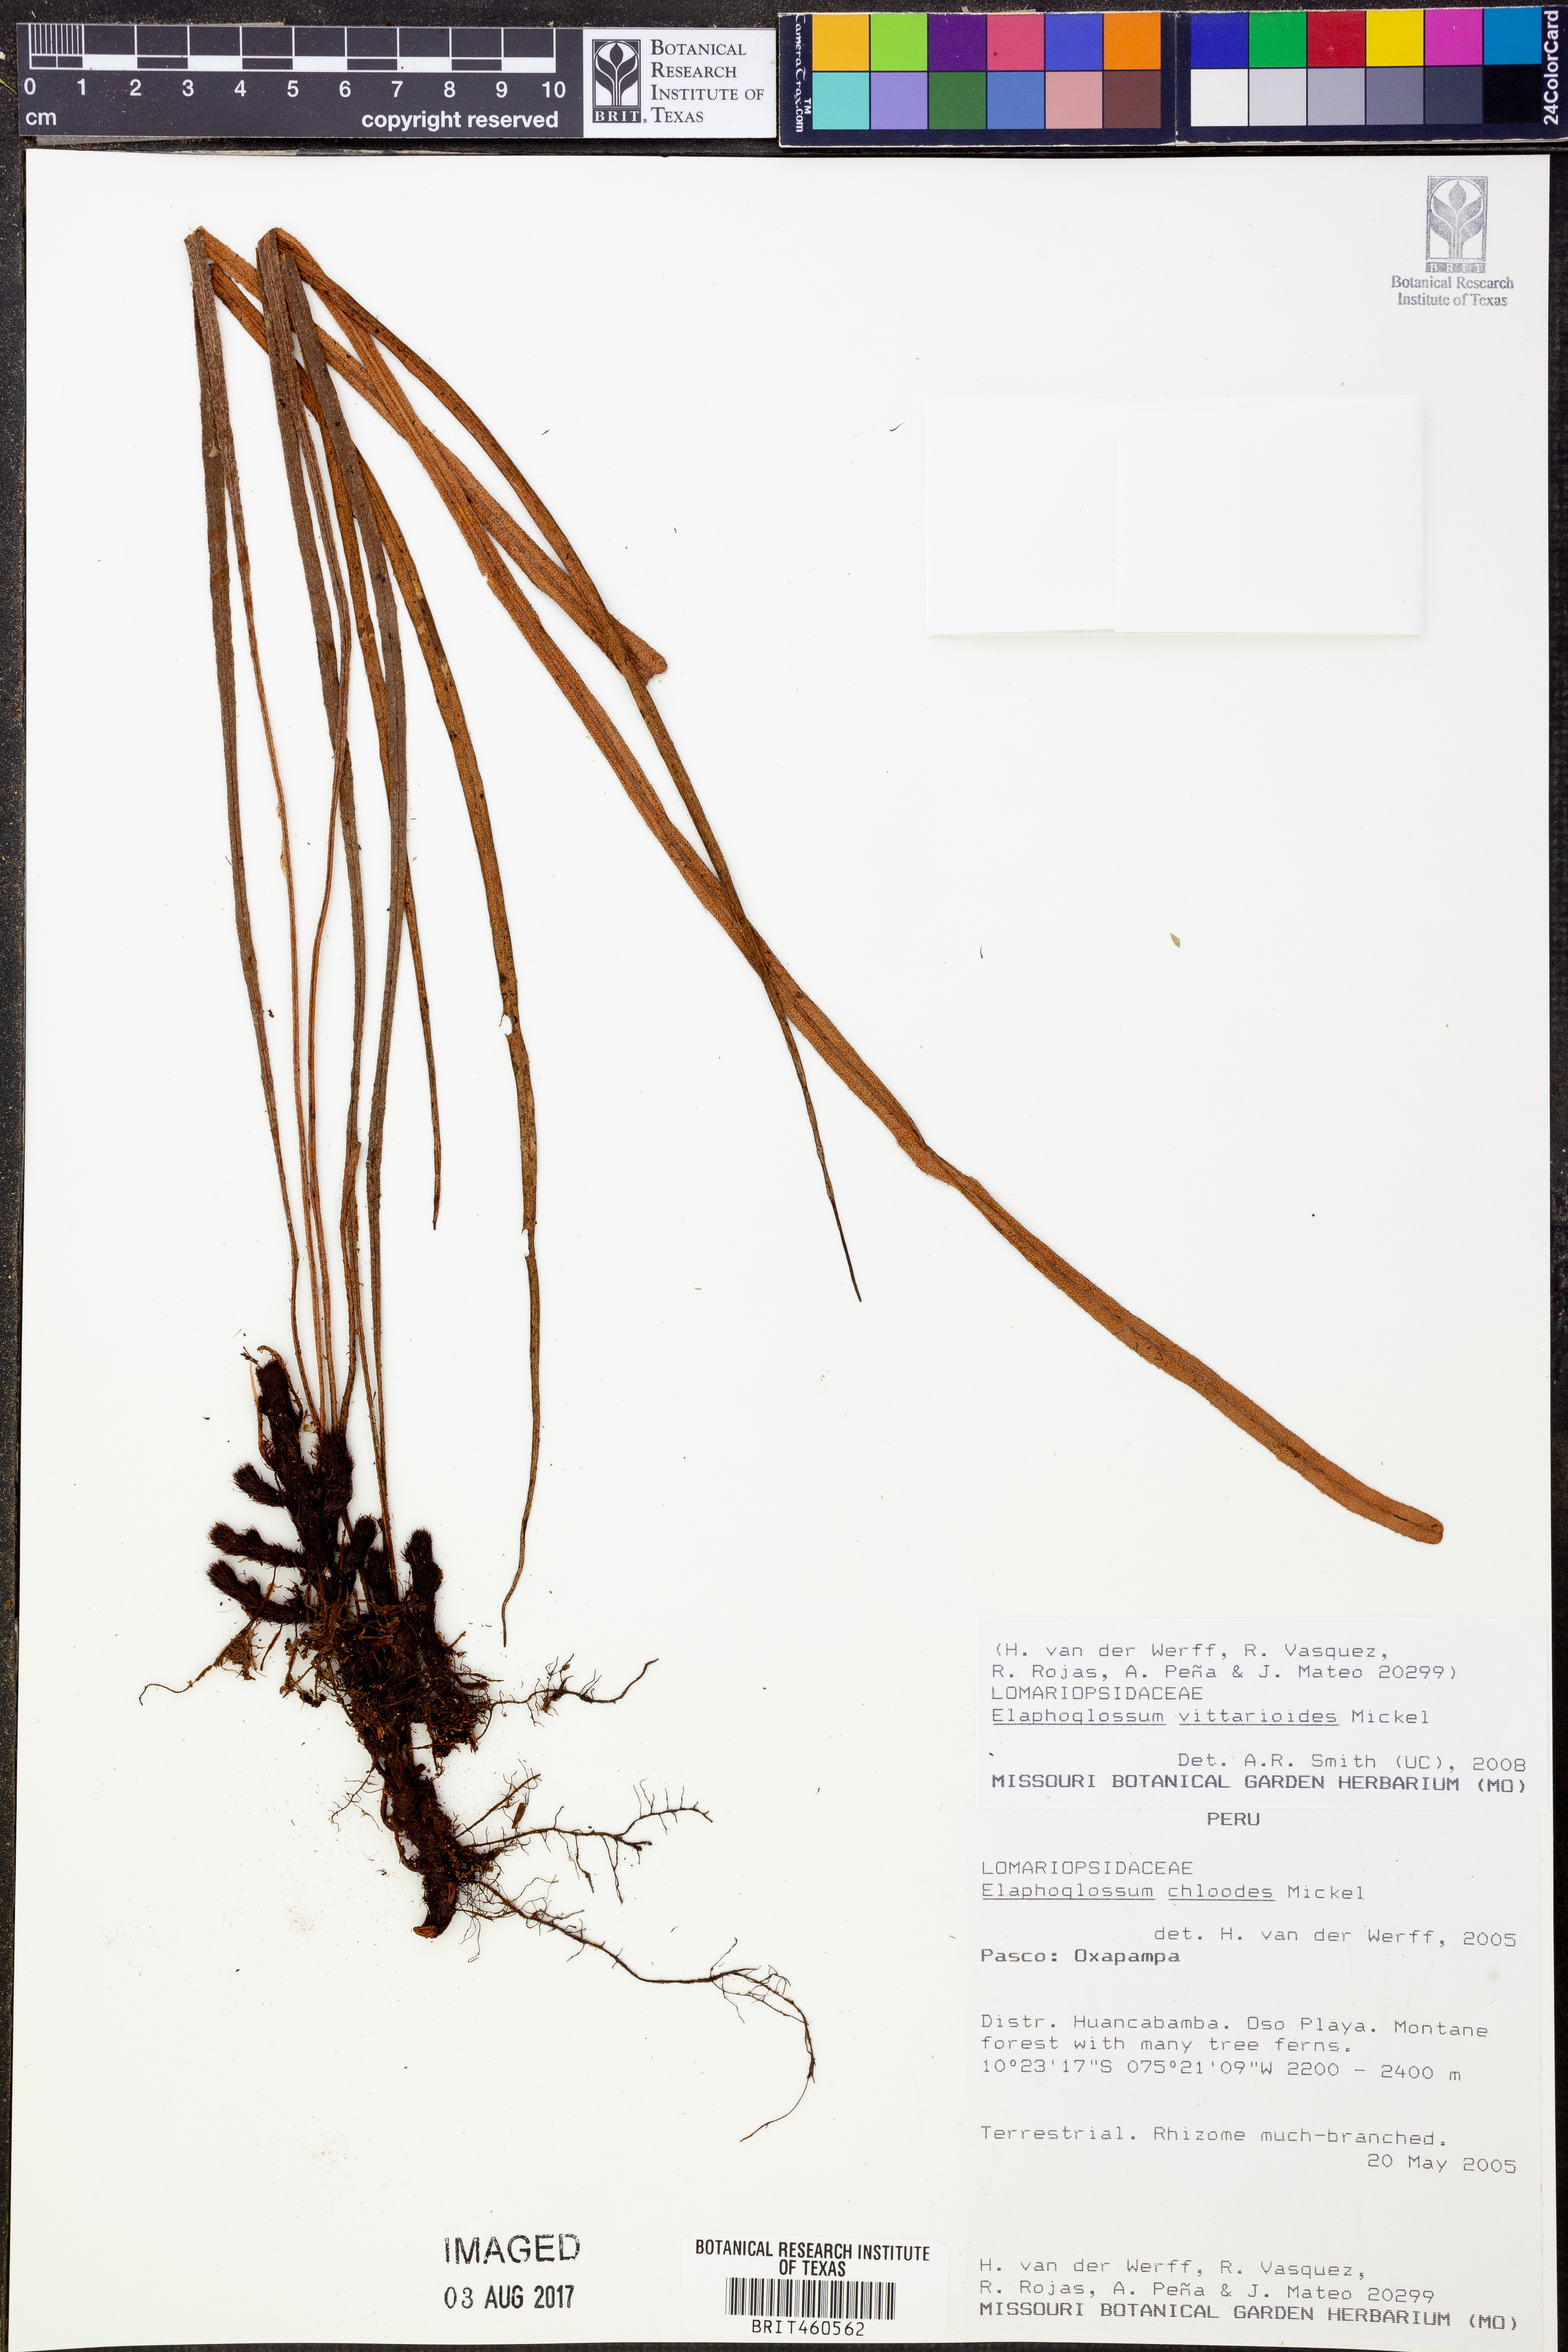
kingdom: Plantae
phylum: Tracheophyta
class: Polypodiopsida
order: Polypodiales
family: Dryopteridaceae
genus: Elaphoglossum
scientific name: Elaphoglossum vittarioides
